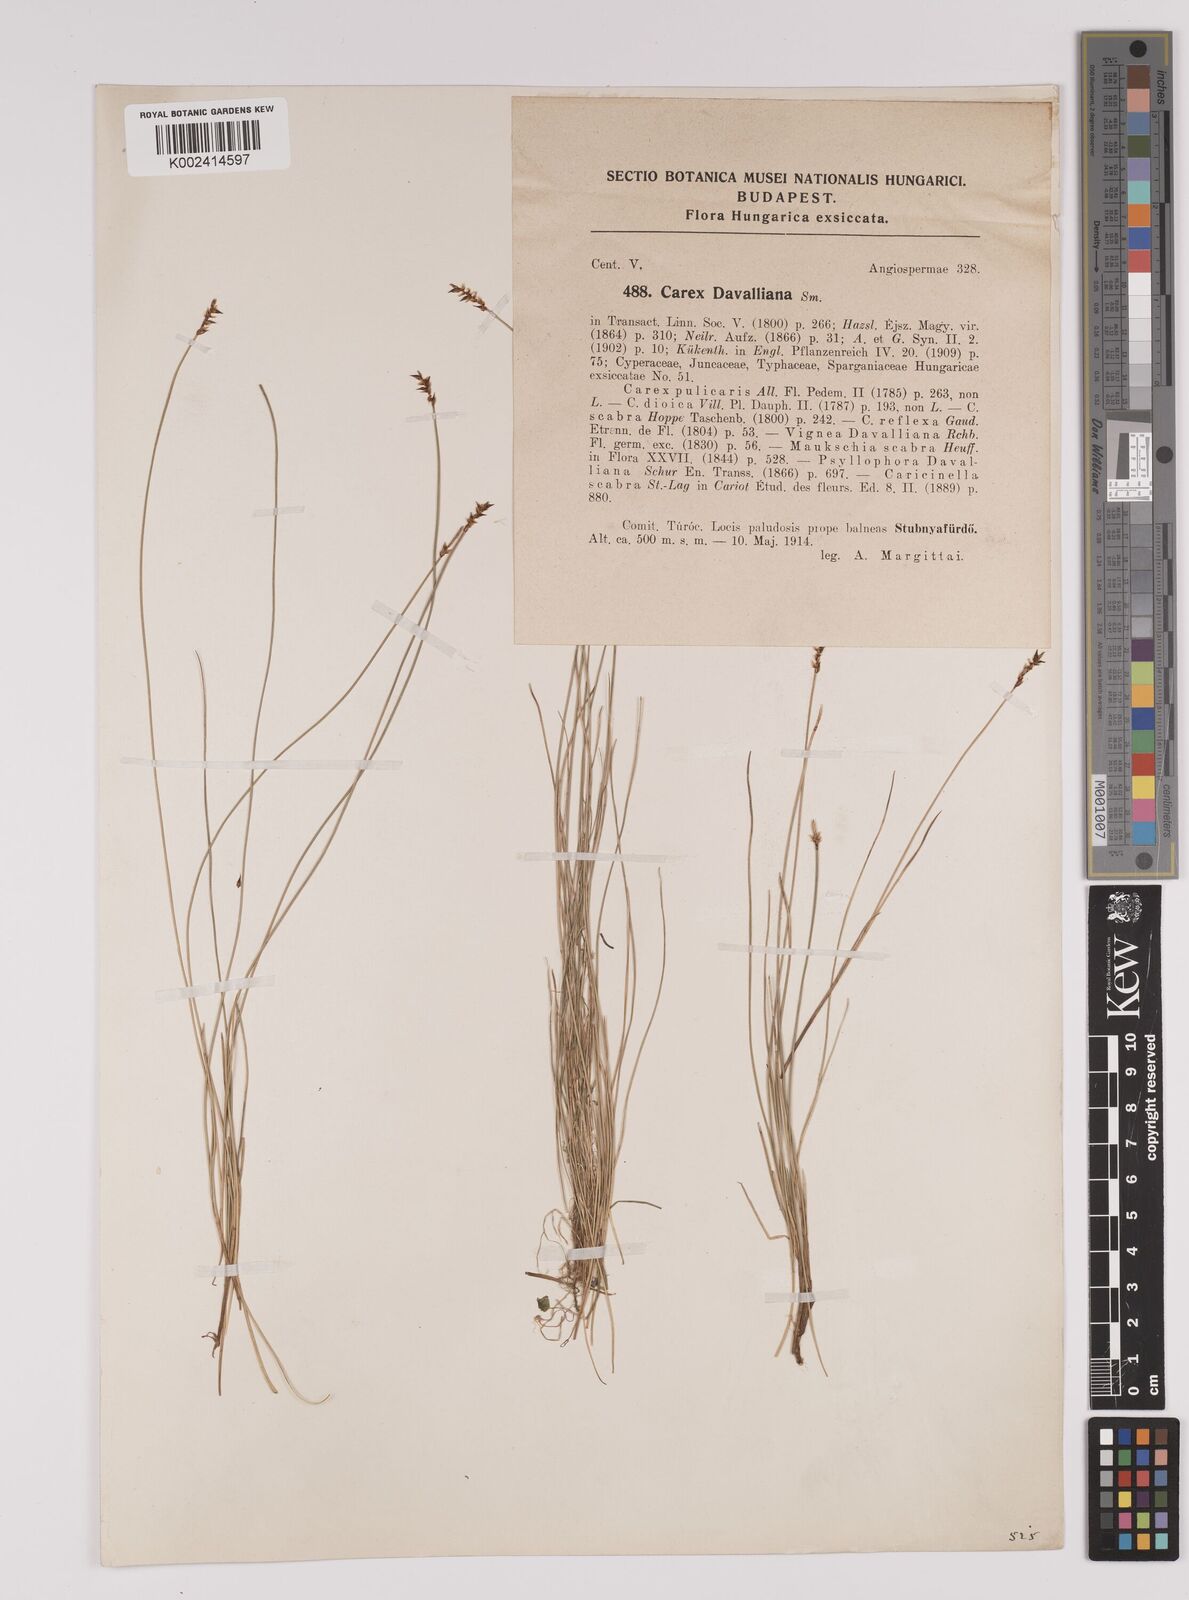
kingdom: Plantae
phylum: Tracheophyta
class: Liliopsida
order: Poales
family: Cyperaceae
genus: Carex
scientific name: Carex davalliana
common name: Davall's sedge
